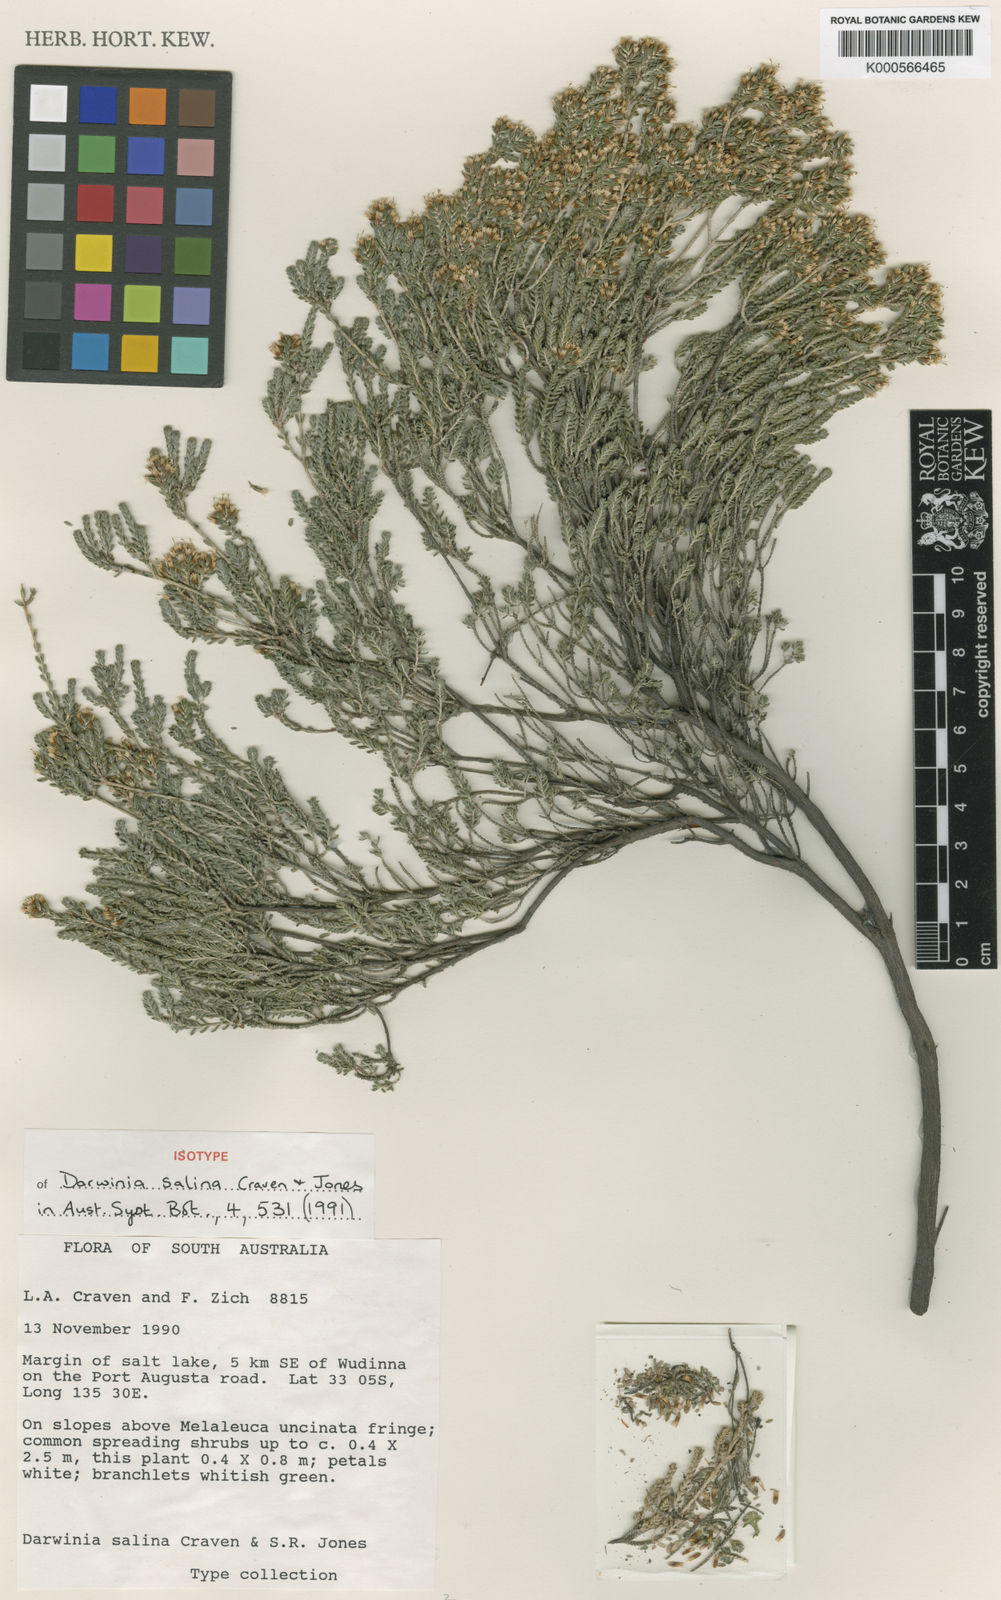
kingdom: Plantae
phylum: Tracheophyta
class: Magnoliopsida
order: Myrtales
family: Myrtaceae
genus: Darwinia
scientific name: Darwinia salina
